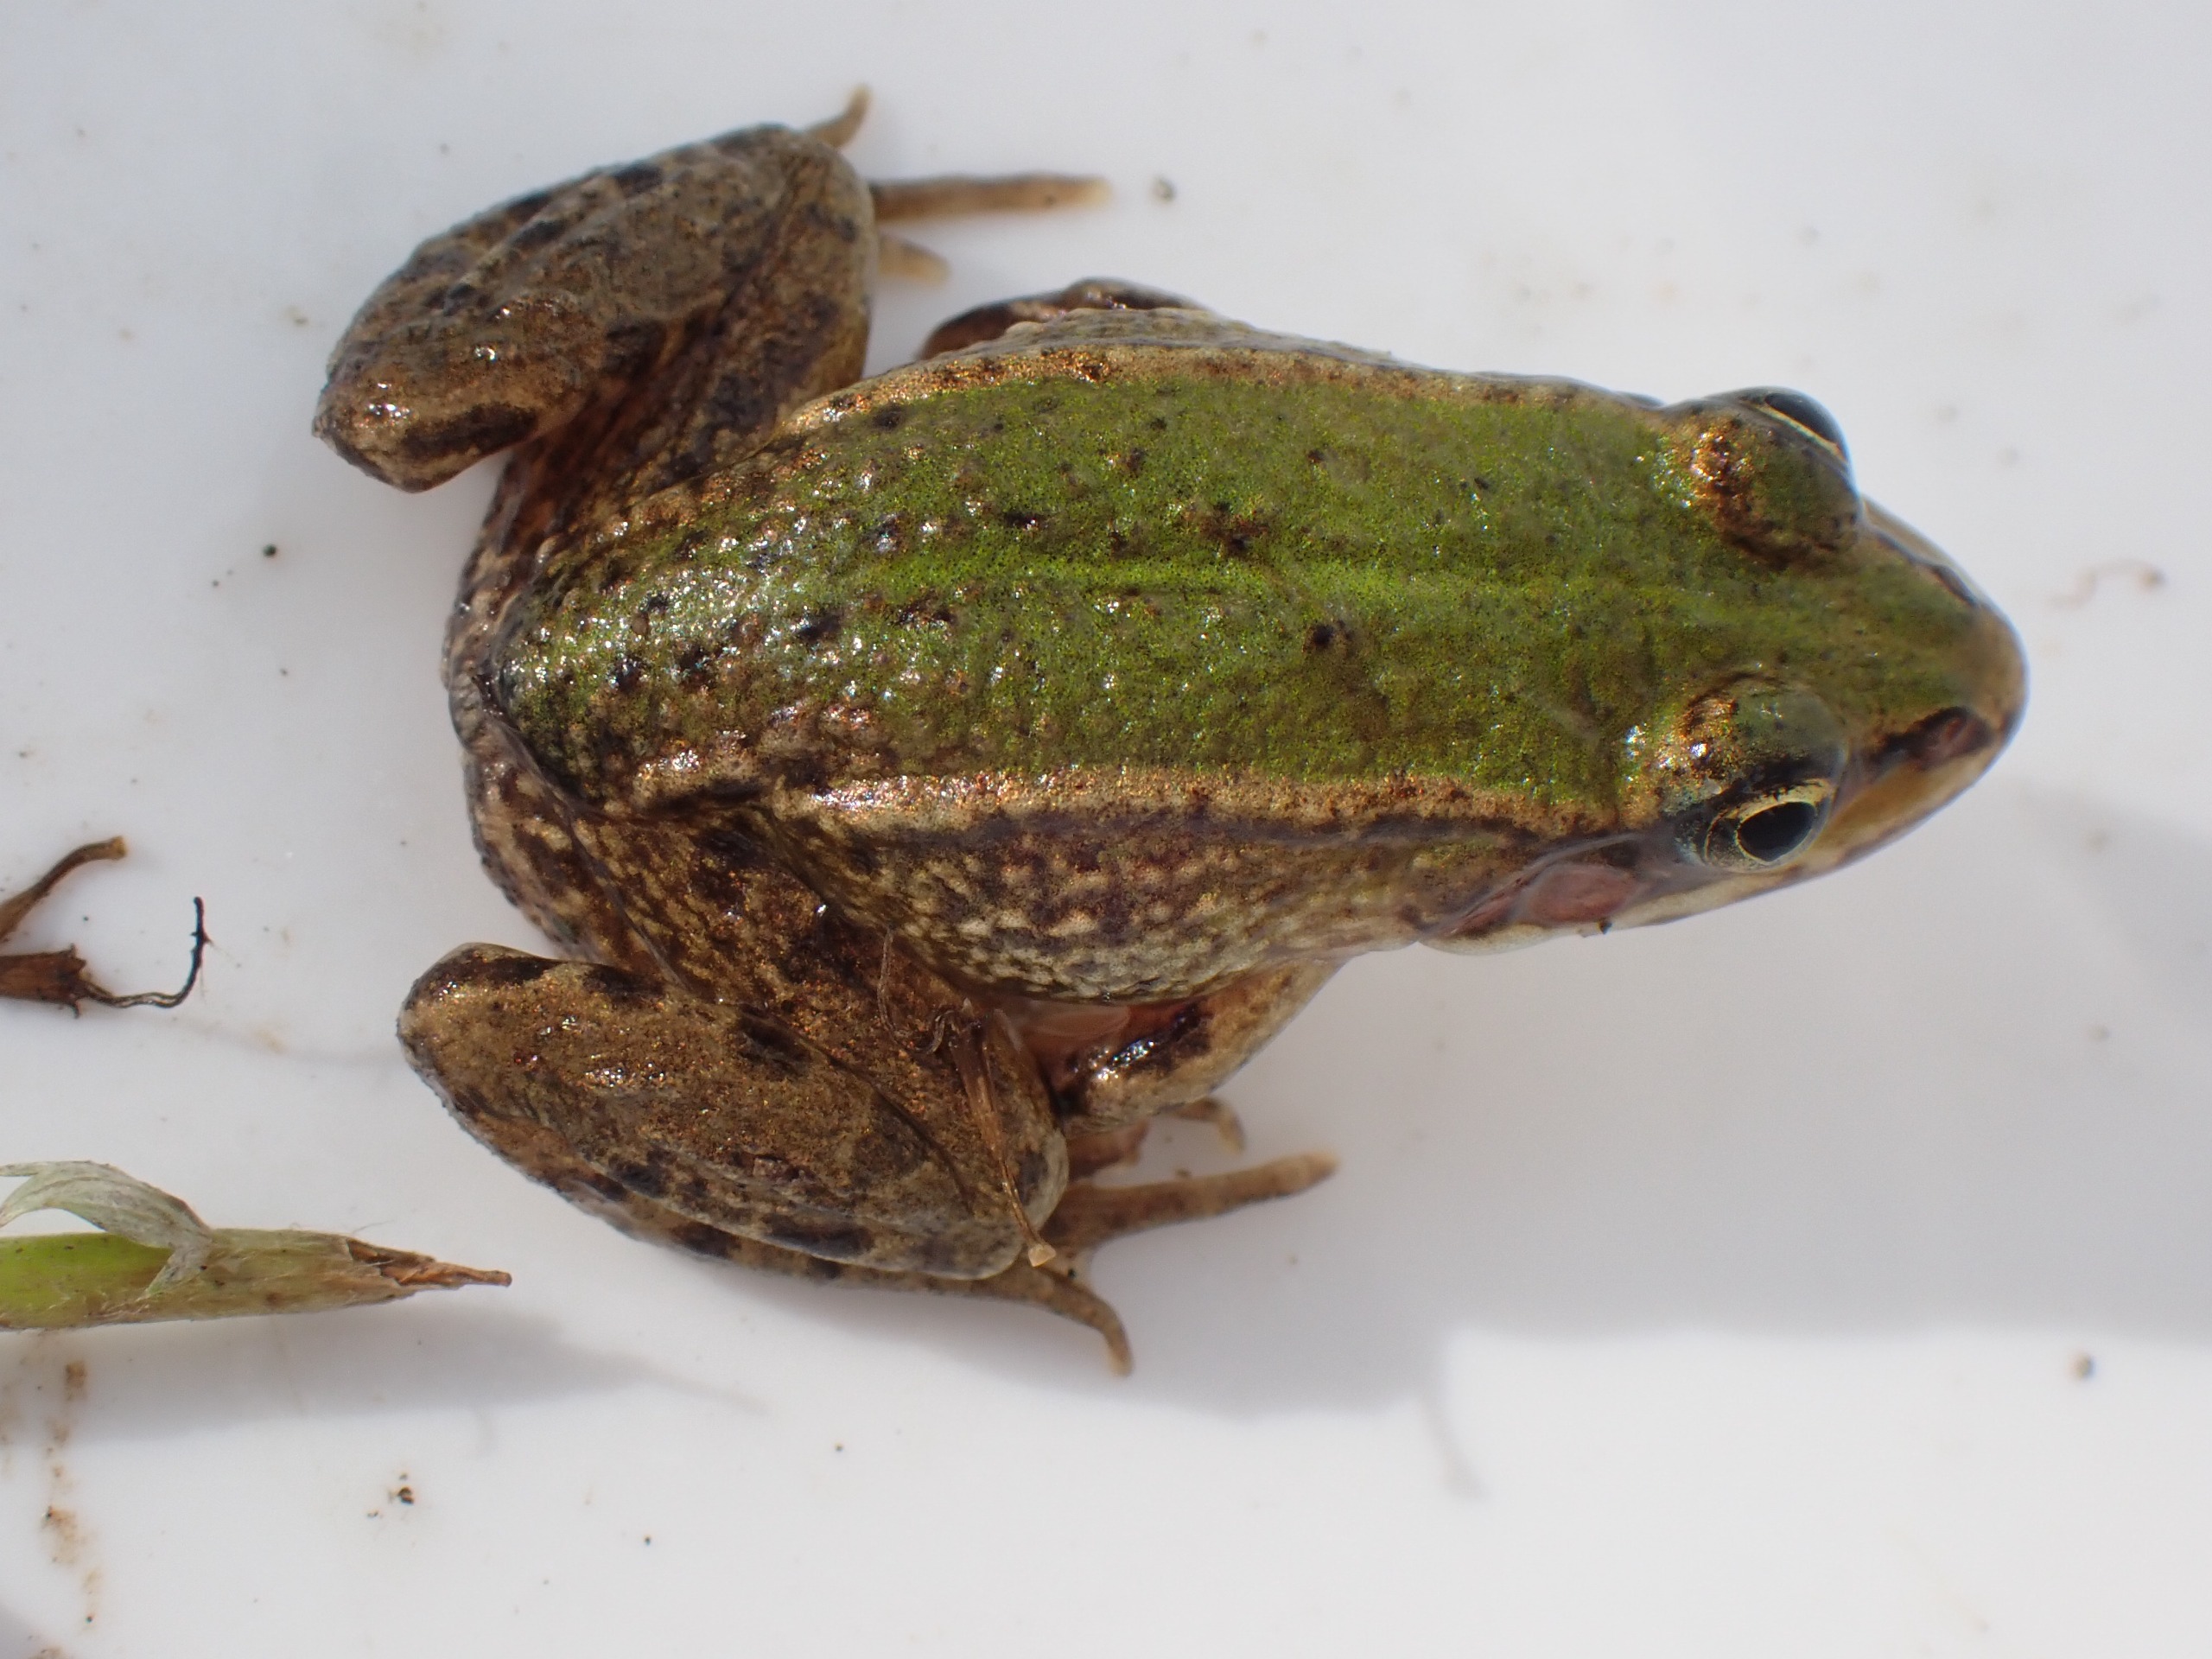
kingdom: Animalia
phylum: Chordata
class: Amphibia
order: Anura
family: Ranidae
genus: Pelophylax
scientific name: Pelophylax lessonae
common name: Grøn frø
